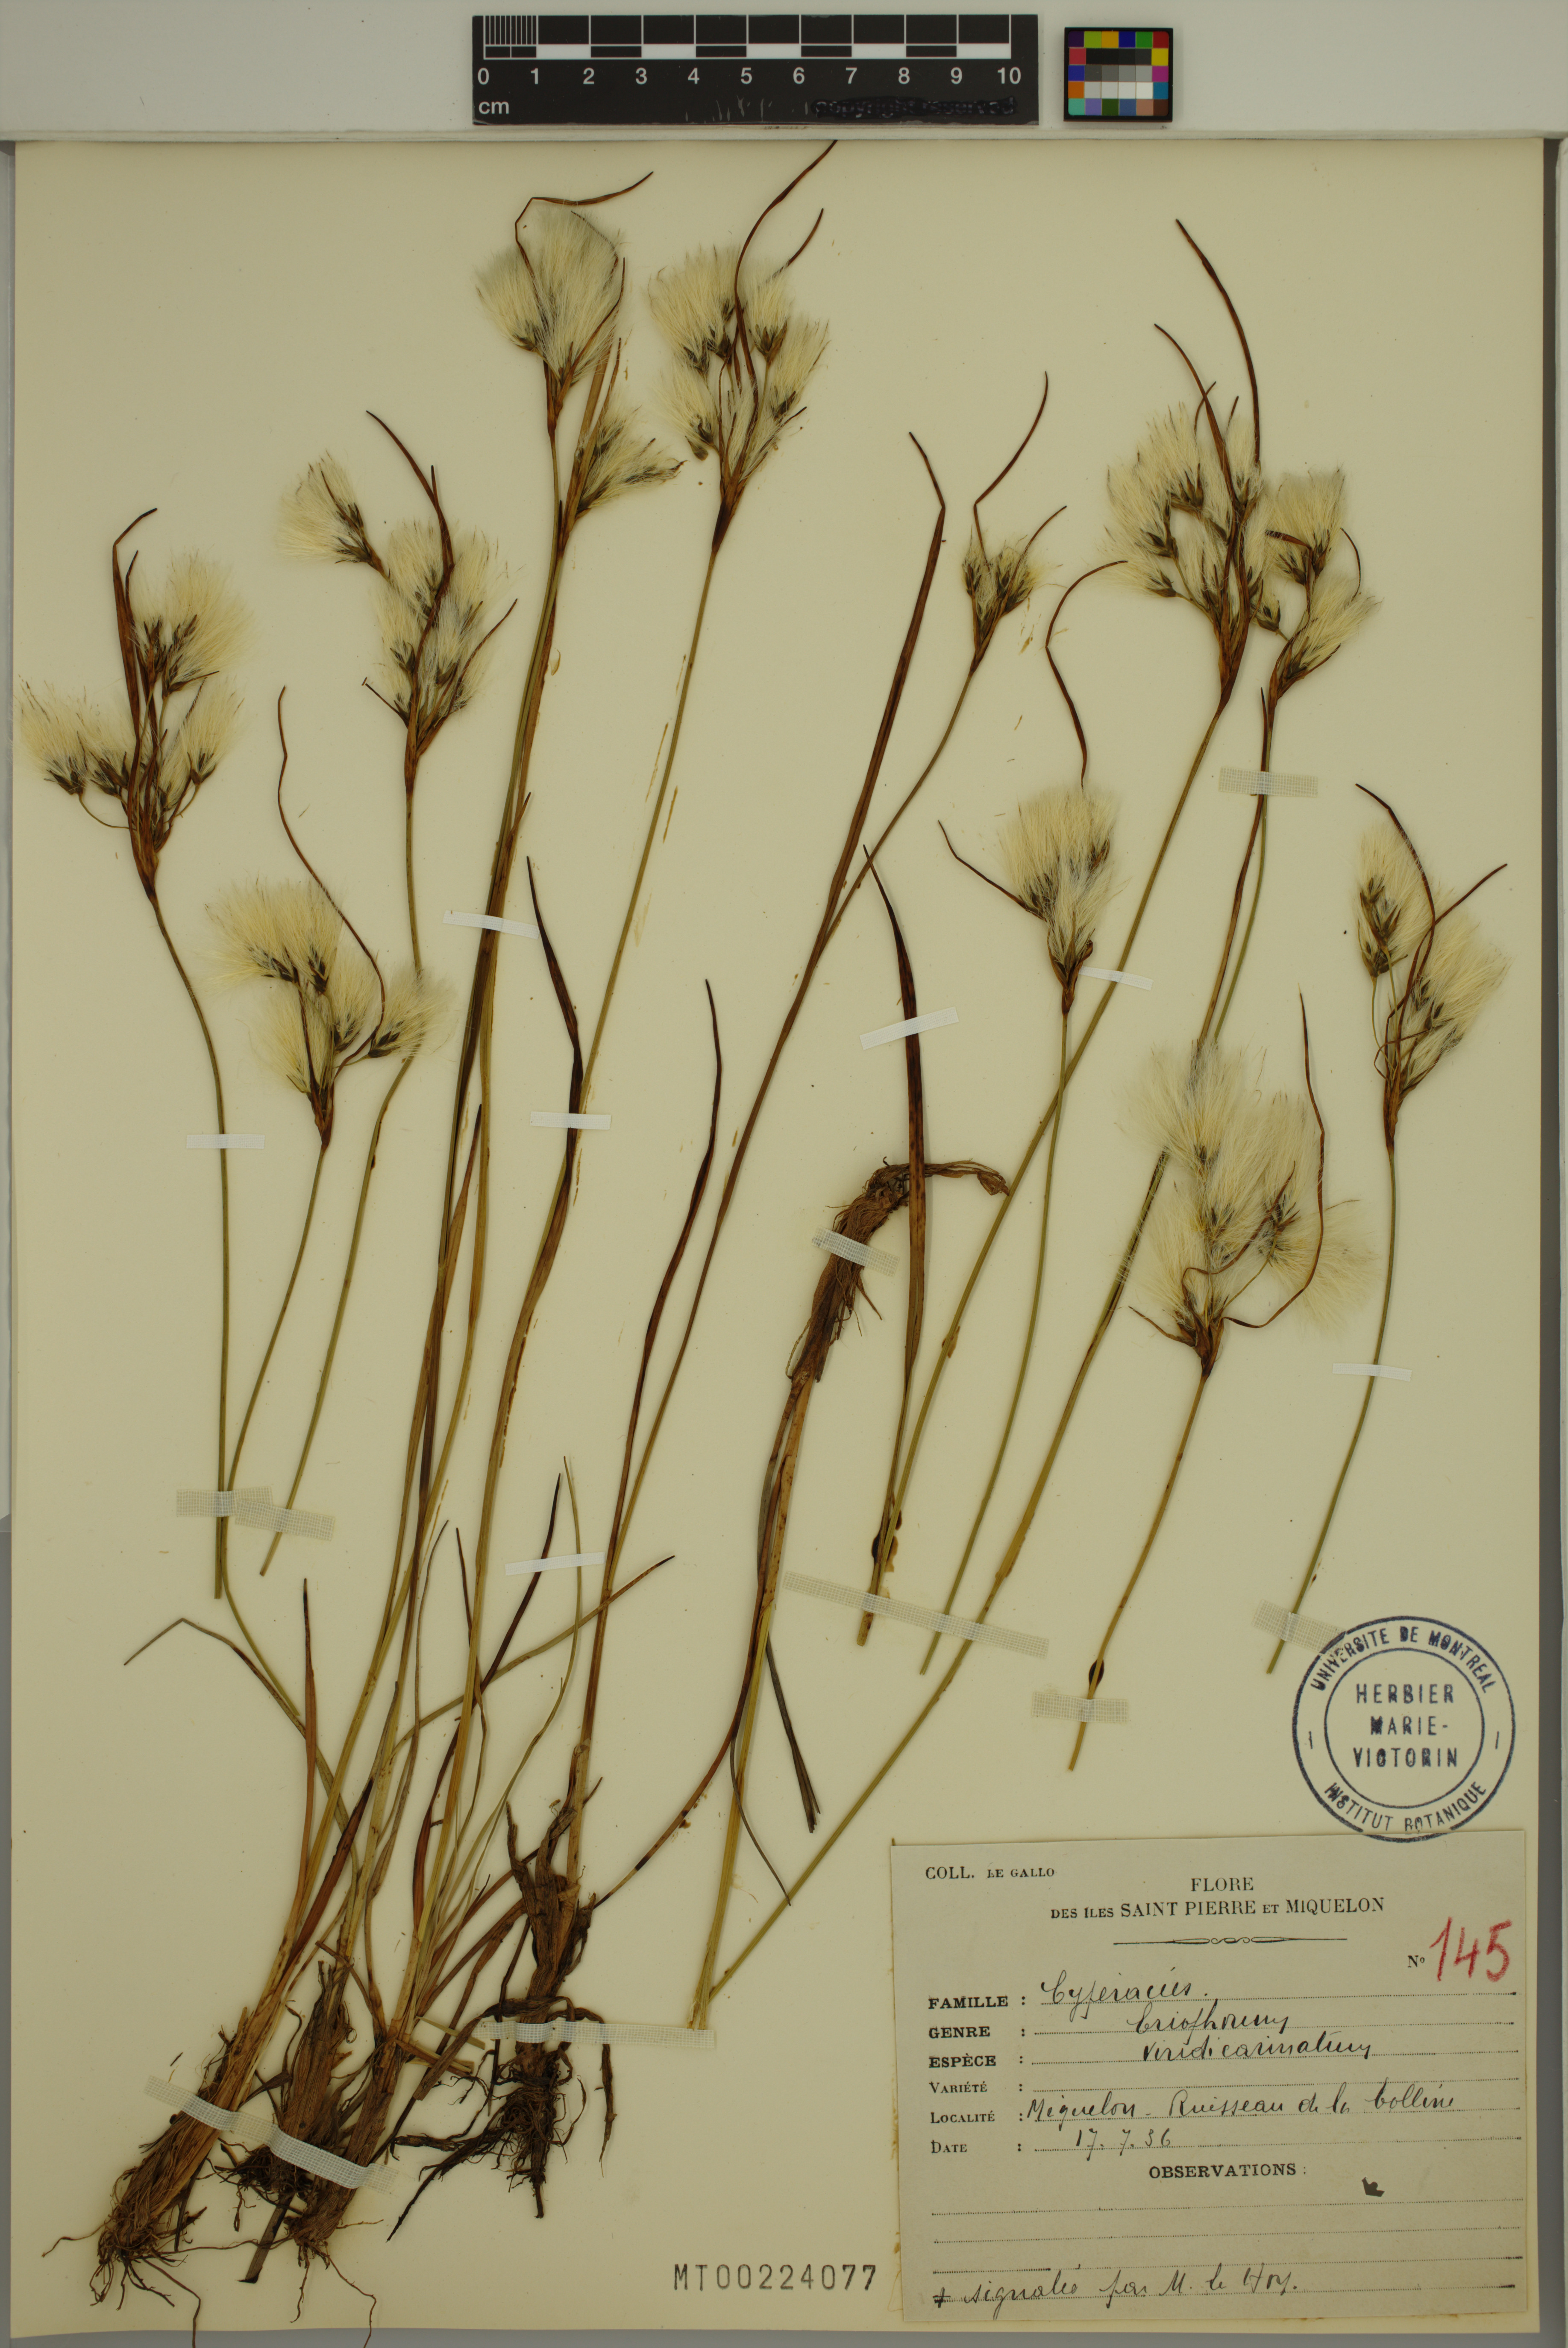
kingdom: Plantae
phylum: Tracheophyta
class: Liliopsida
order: Poales
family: Cyperaceae
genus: Eriophorum
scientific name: Eriophorum viridicarinatum
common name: Green-keeled cottongrass
